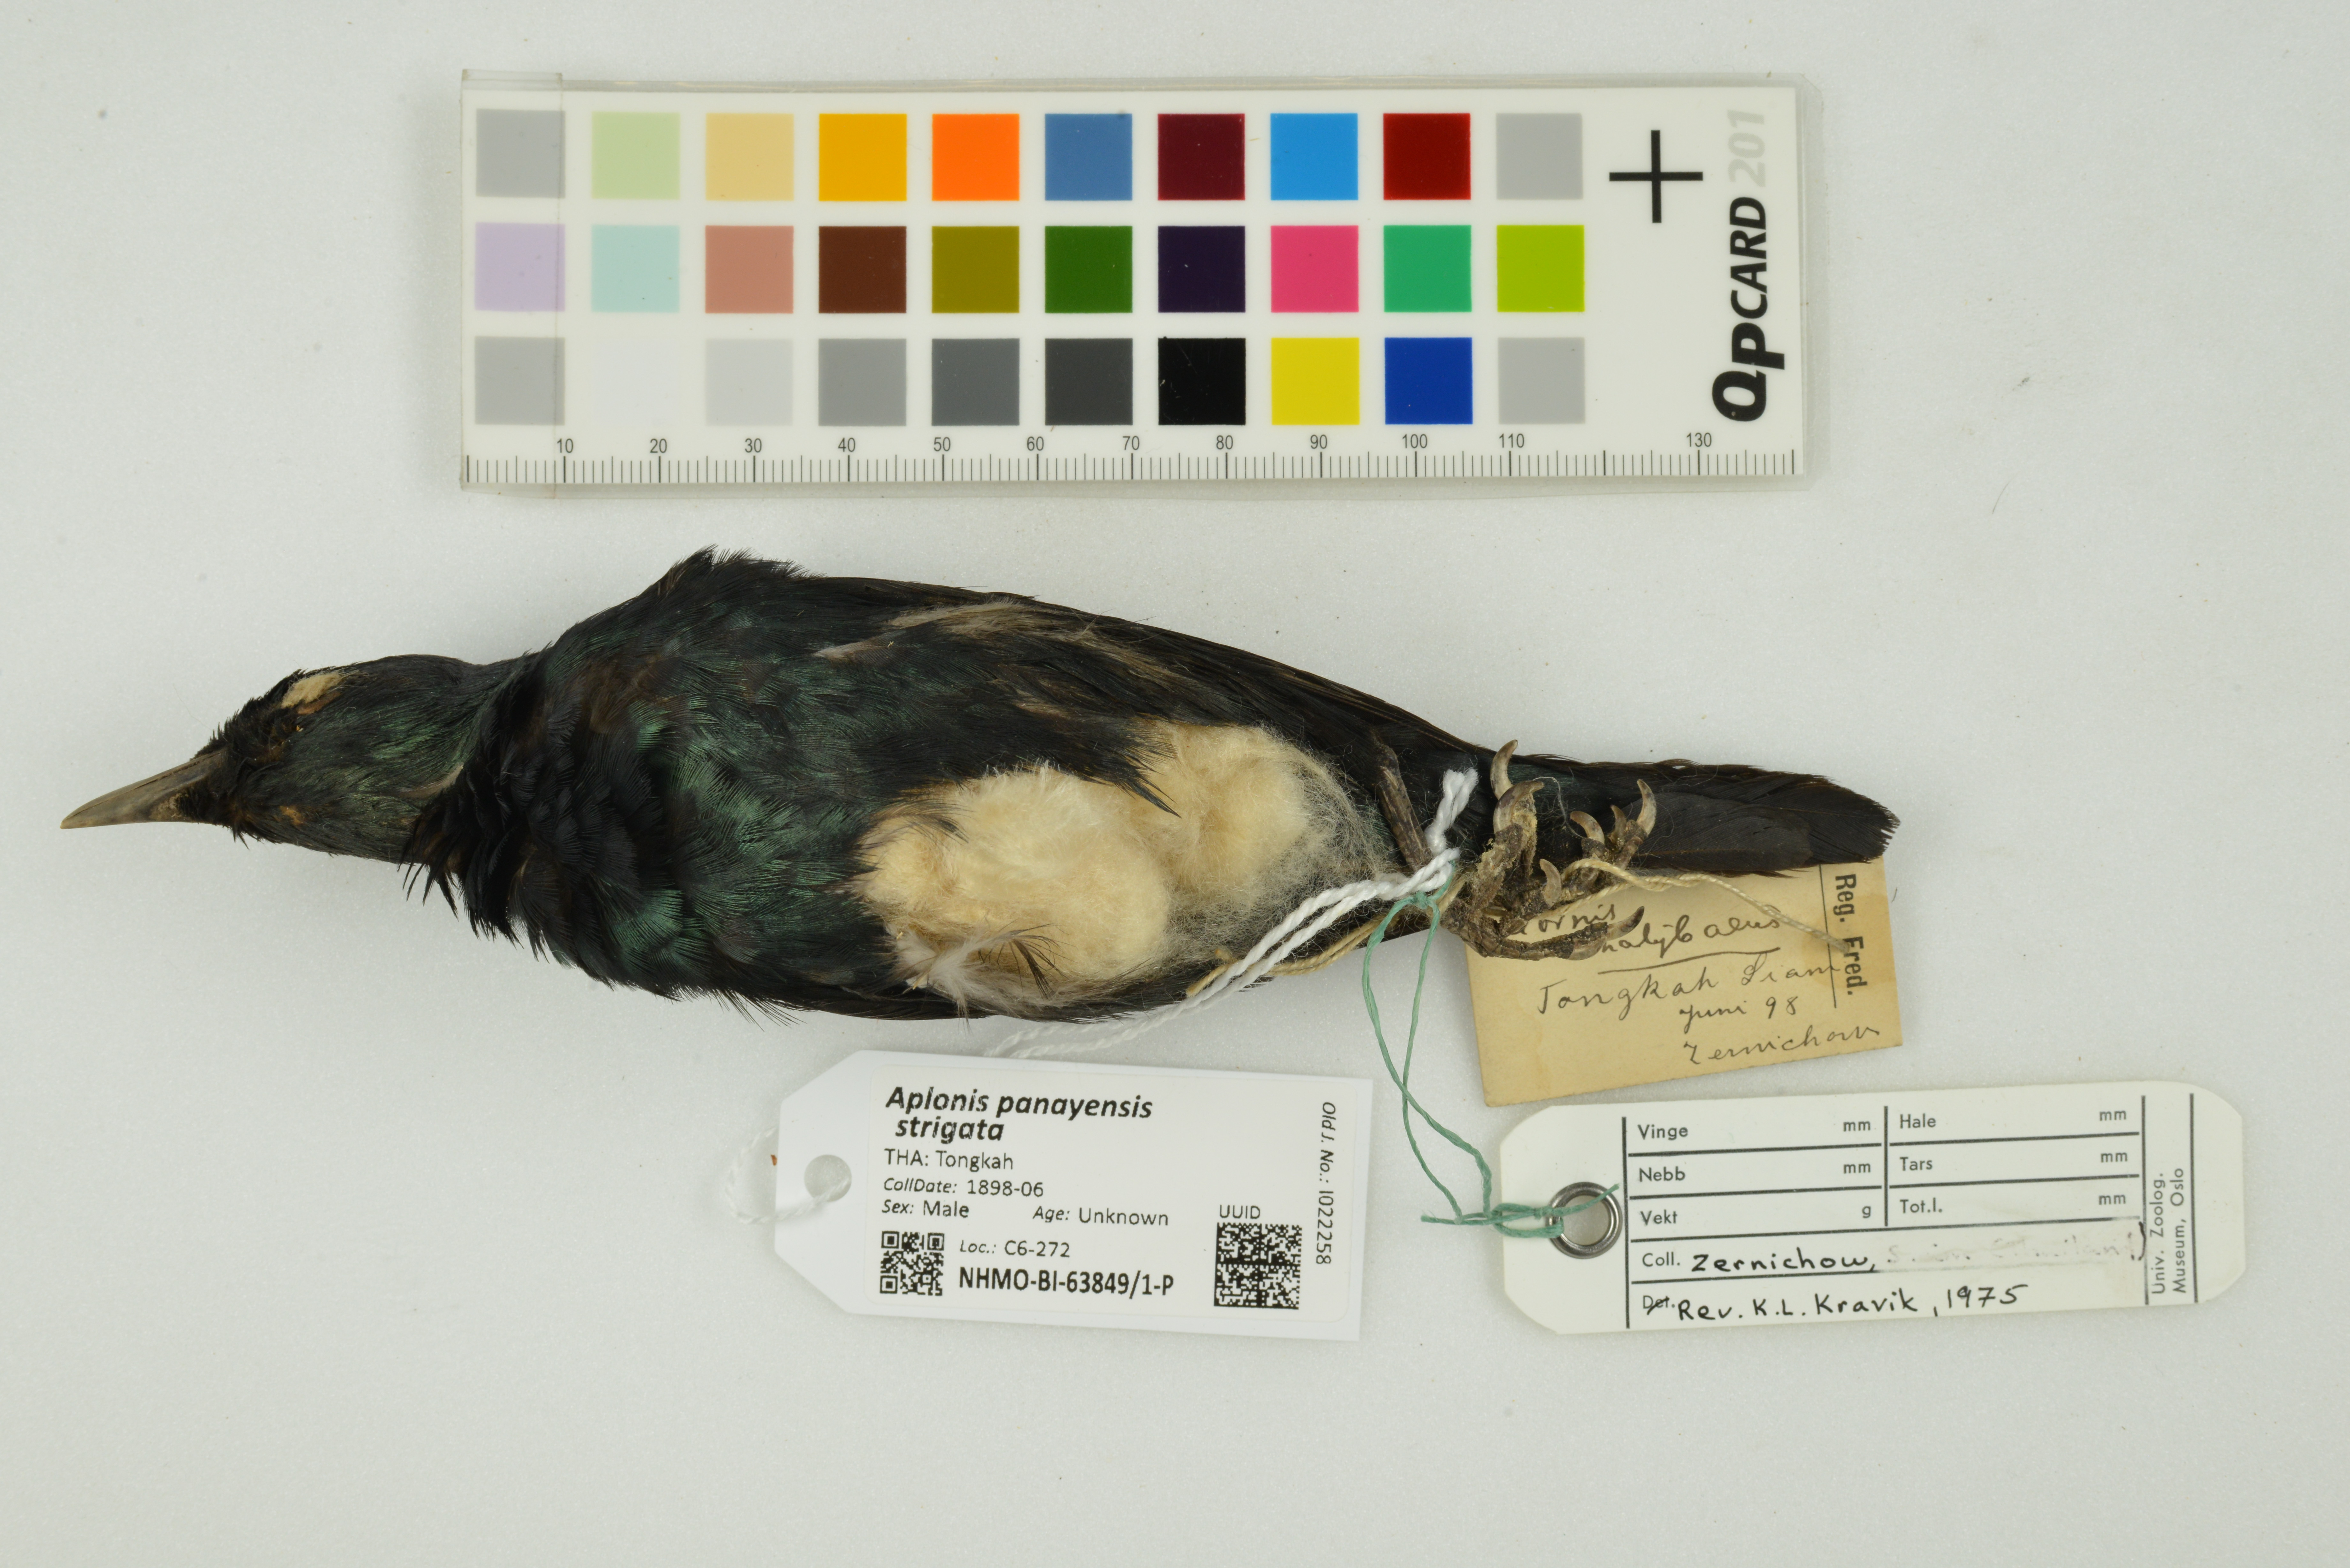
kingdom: Animalia
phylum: Chordata
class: Aves
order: Passeriformes
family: Sturnidae
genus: Aplonis
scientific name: Aplonis panayensis
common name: Asian glossy starling
